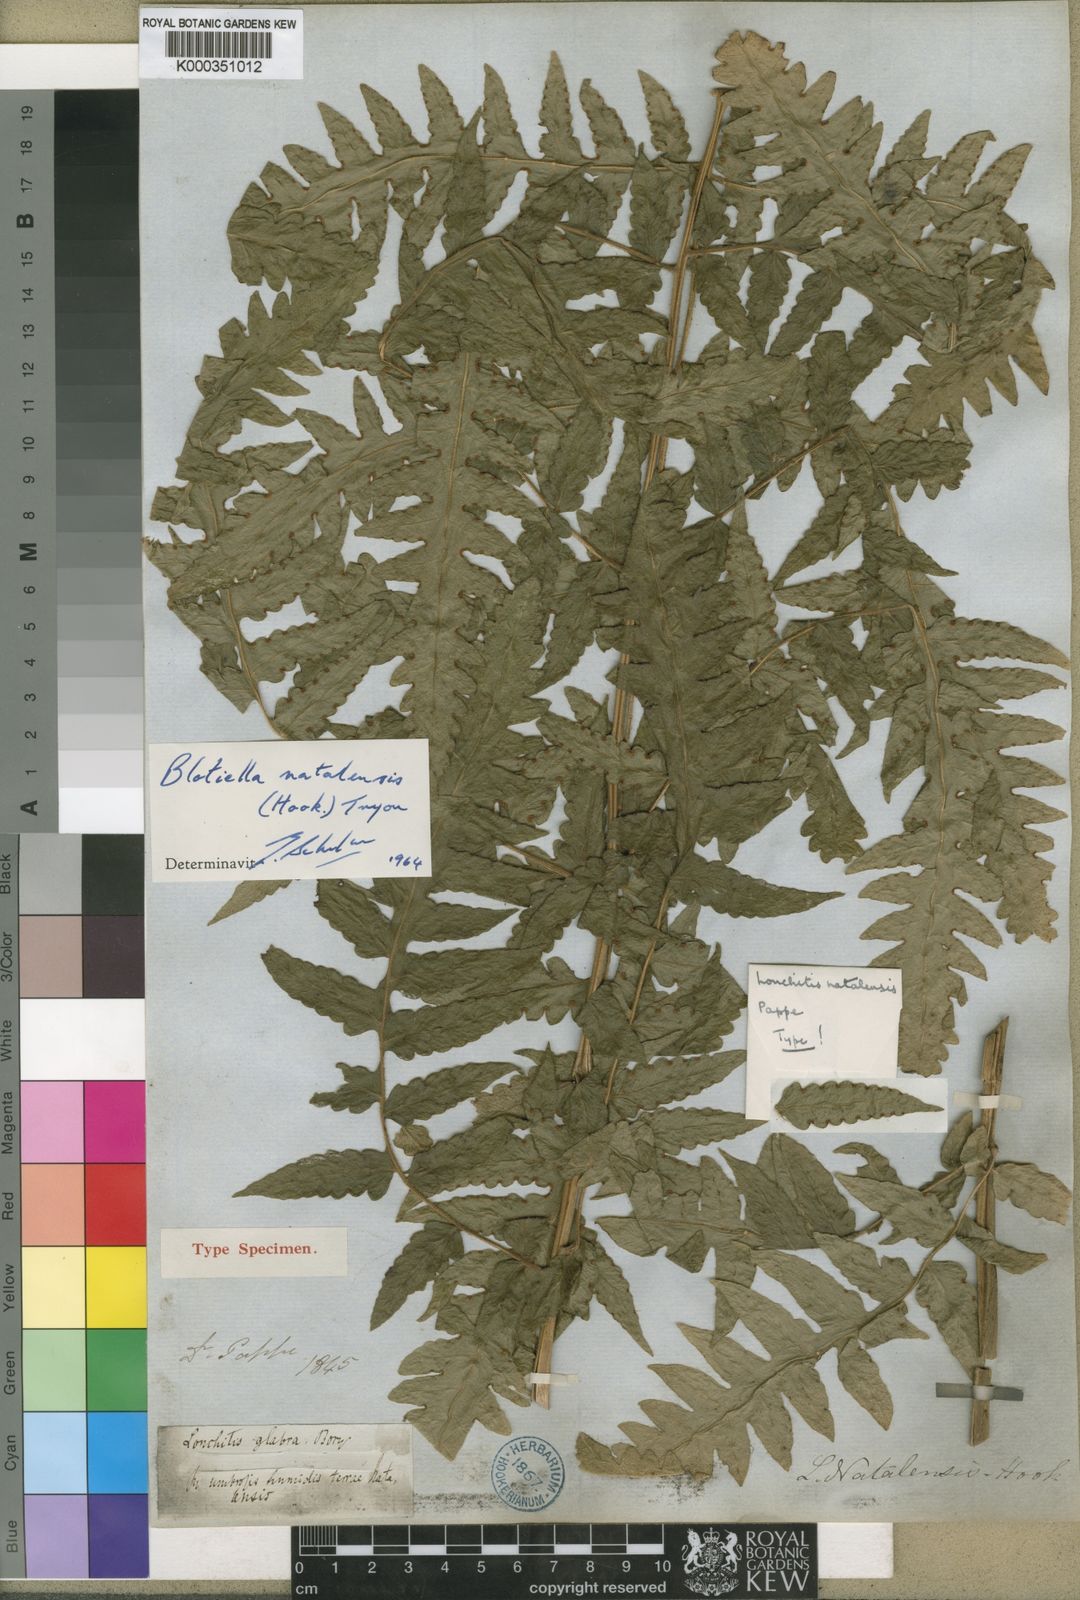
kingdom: Plantae
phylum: Tracheophyta
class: Polypodiopsida
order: Polypodiales
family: Dennstaedtiaceae
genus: Blotiella
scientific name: Blotiella natalensis
